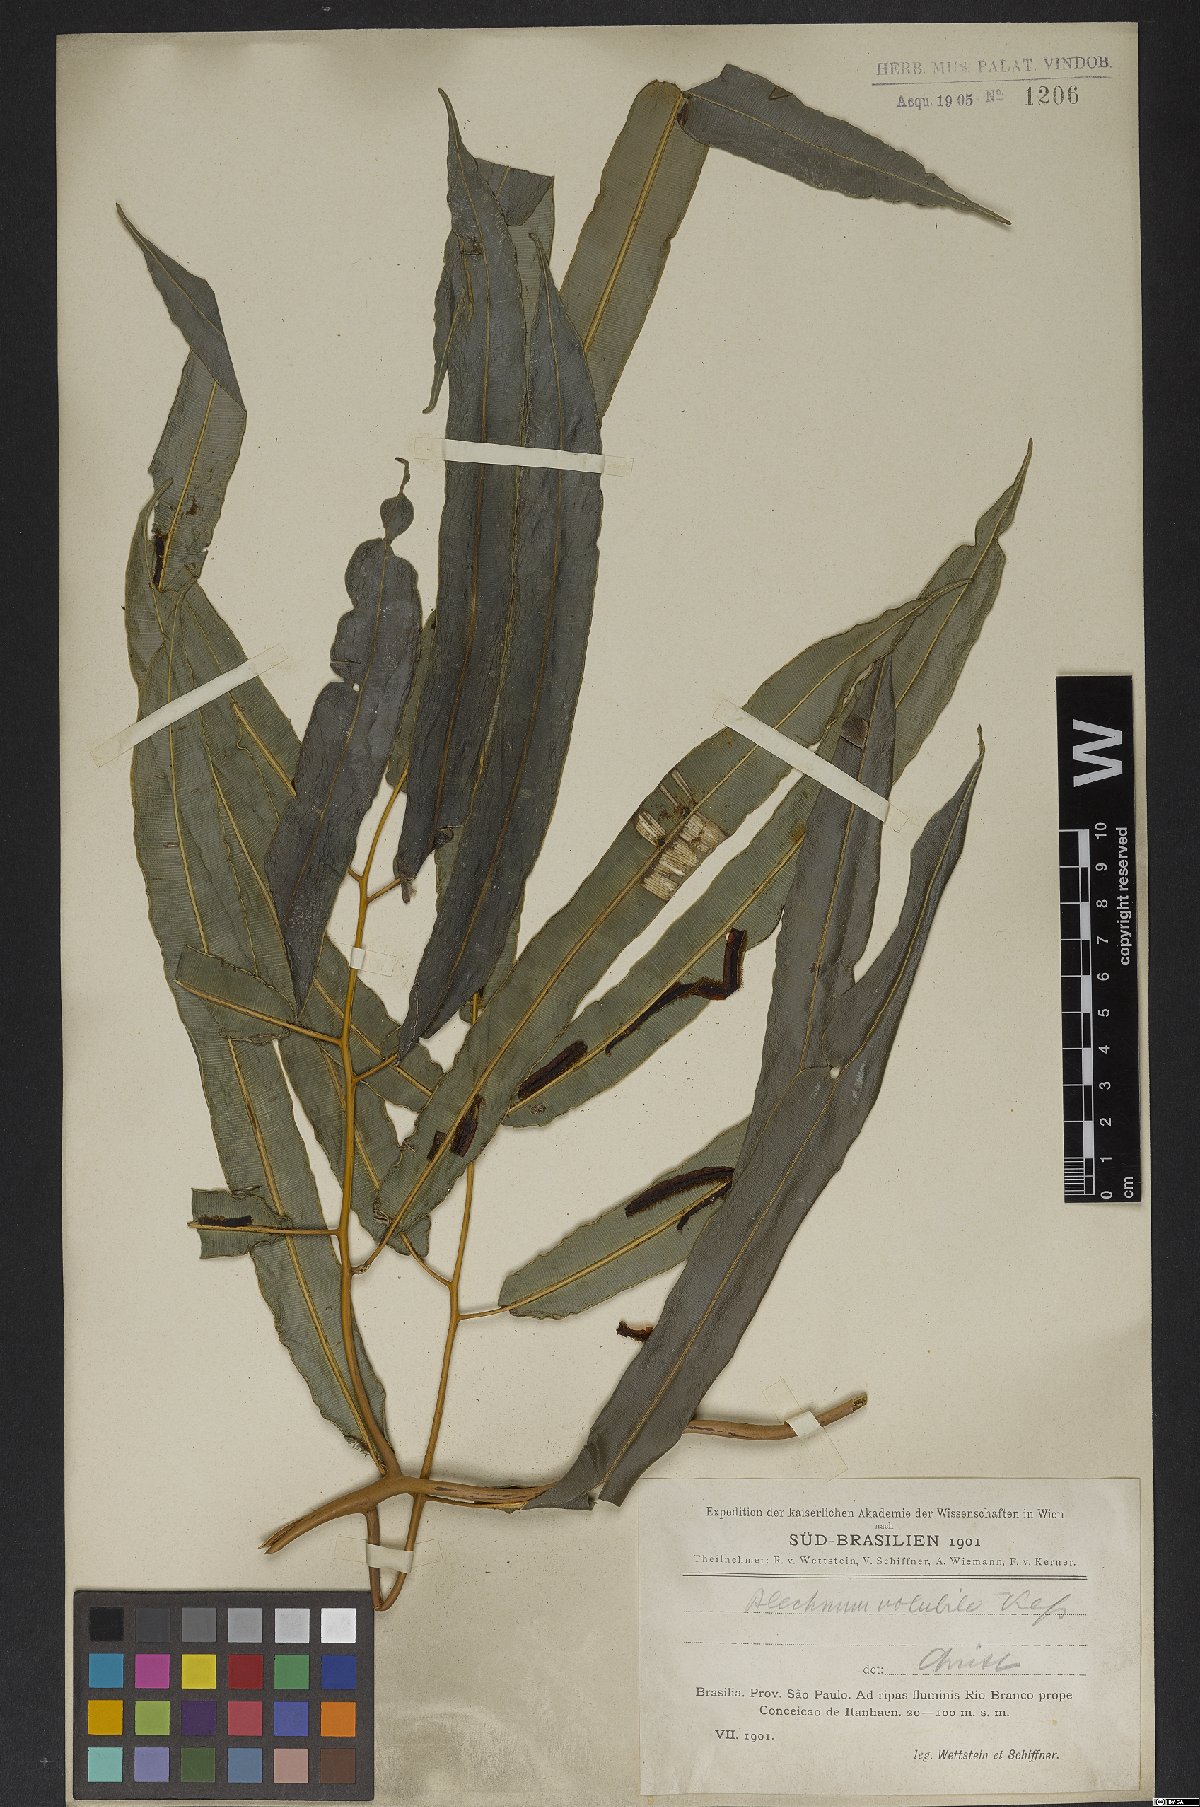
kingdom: Plantae
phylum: Tracheophyta
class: Polypodiopsida
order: Polypodiales
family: Blechnaceae
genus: Salpichlaena
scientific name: Salpichlaena volubilis
